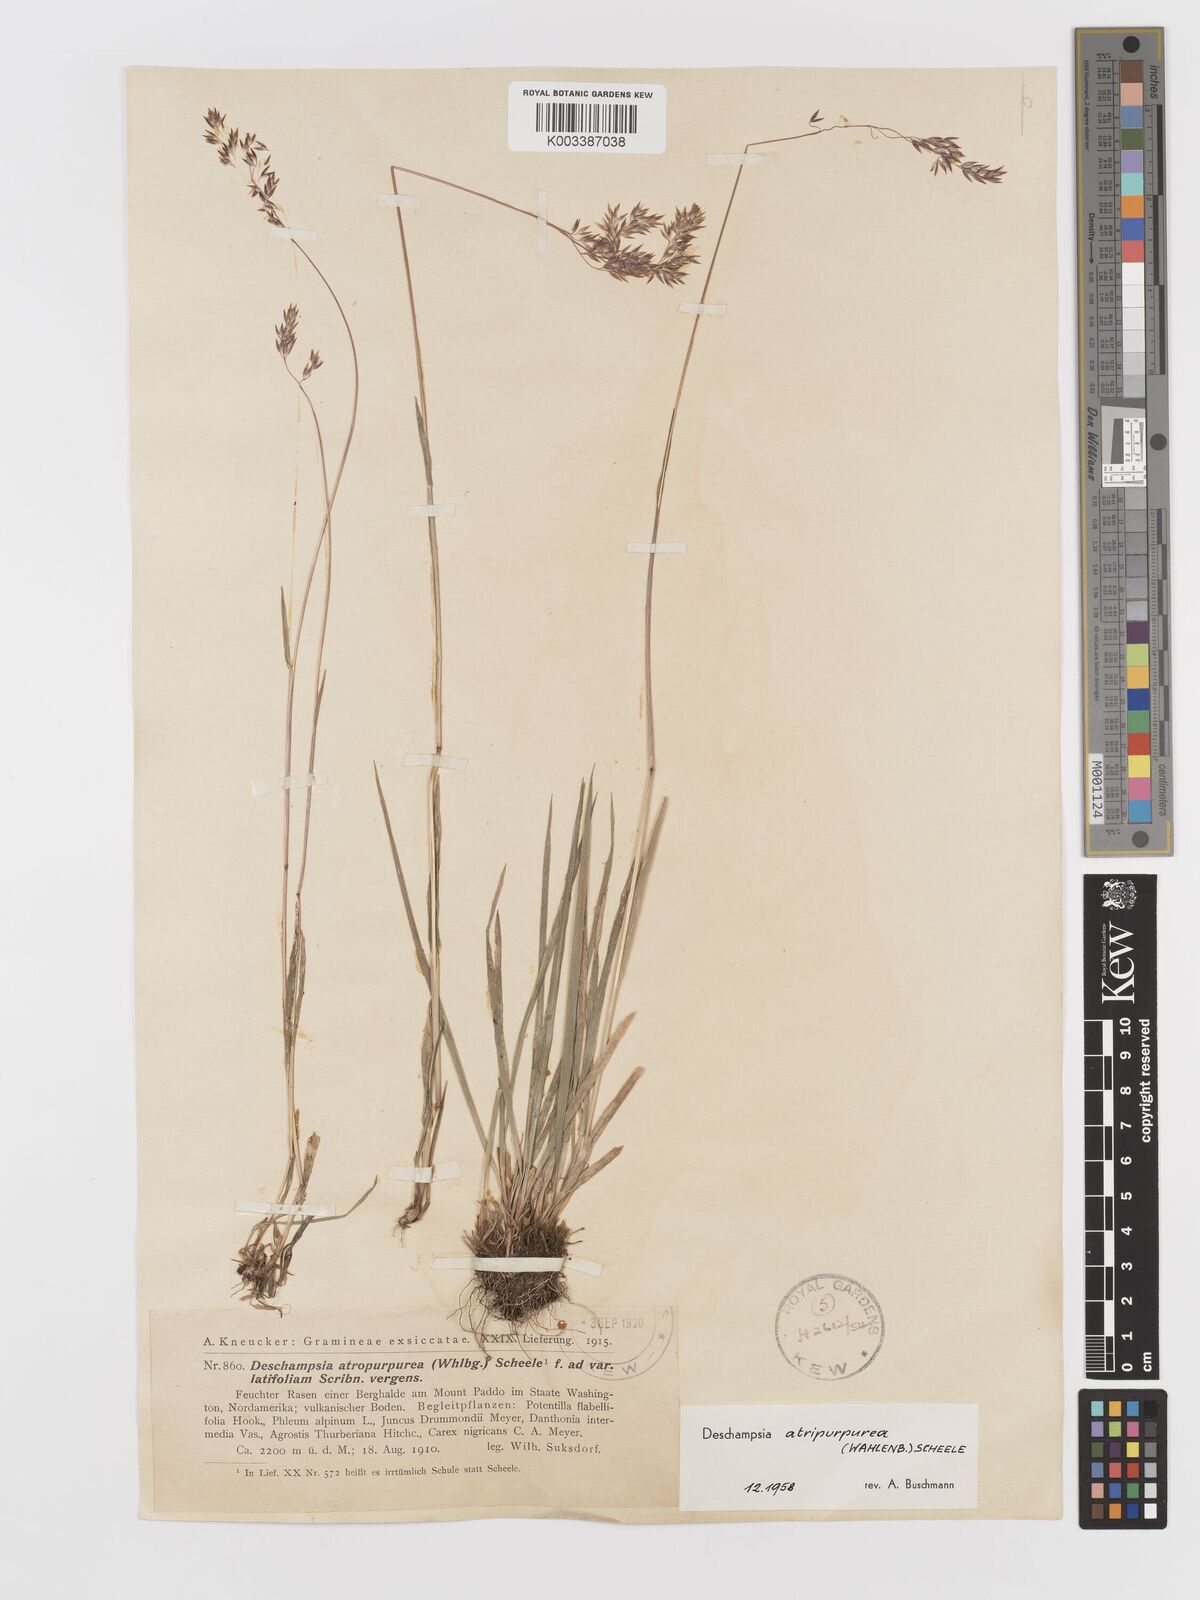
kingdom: Plantae
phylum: Tracheophyta
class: Liliopsida
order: Poales
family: Poaceae
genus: Vahlodea
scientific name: Vahlodea atropurpurea
